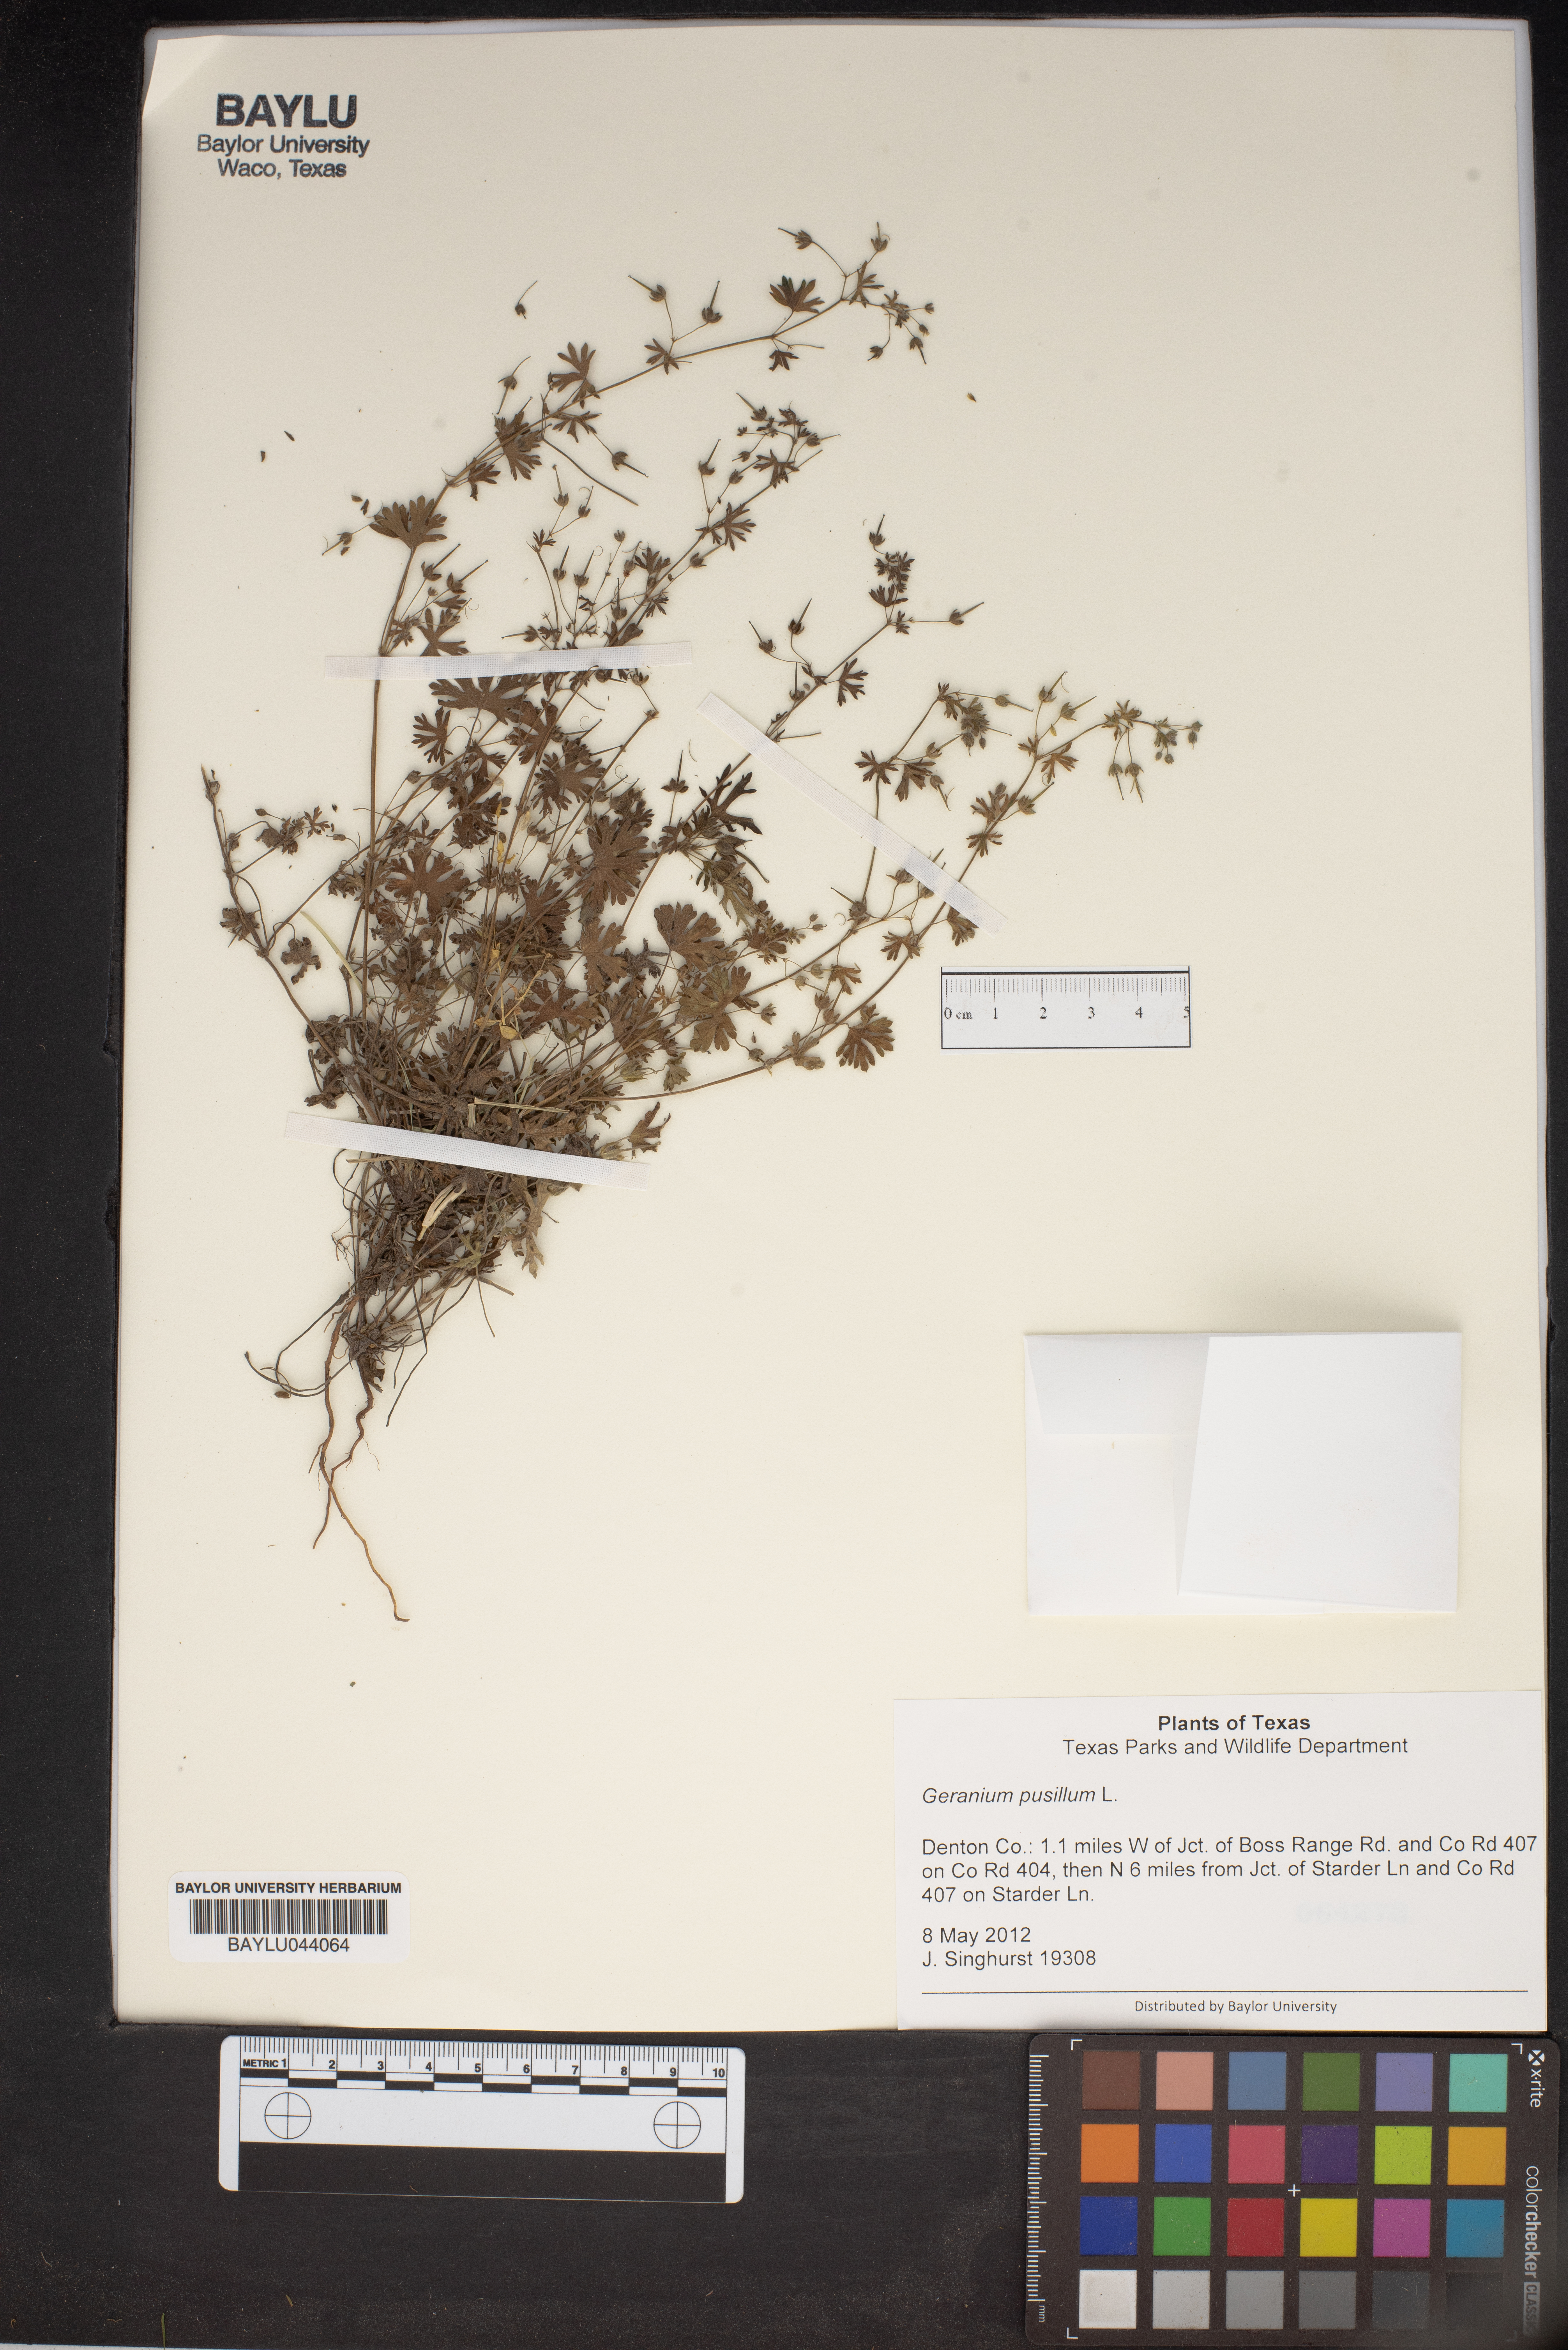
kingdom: Plantae
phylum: Tracheophyta
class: Magnoliopsida
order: Geraniales
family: Geraniaceae
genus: Geranium
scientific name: Geranium pusillum
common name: Small geranium
